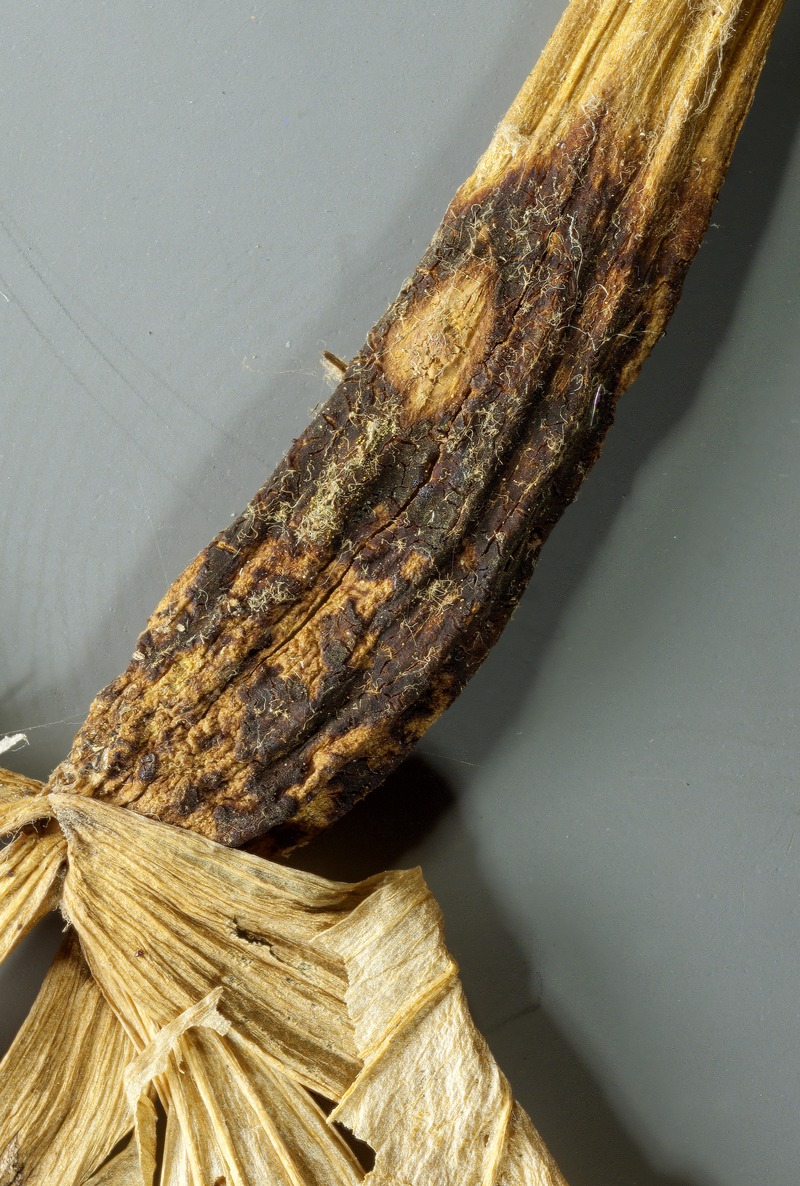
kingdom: Fungi
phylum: Ascomycota
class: Leotiomycetes
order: Medeolariales
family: Medeolariaceae
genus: Medeolaria
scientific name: Medeolaria farlowii
